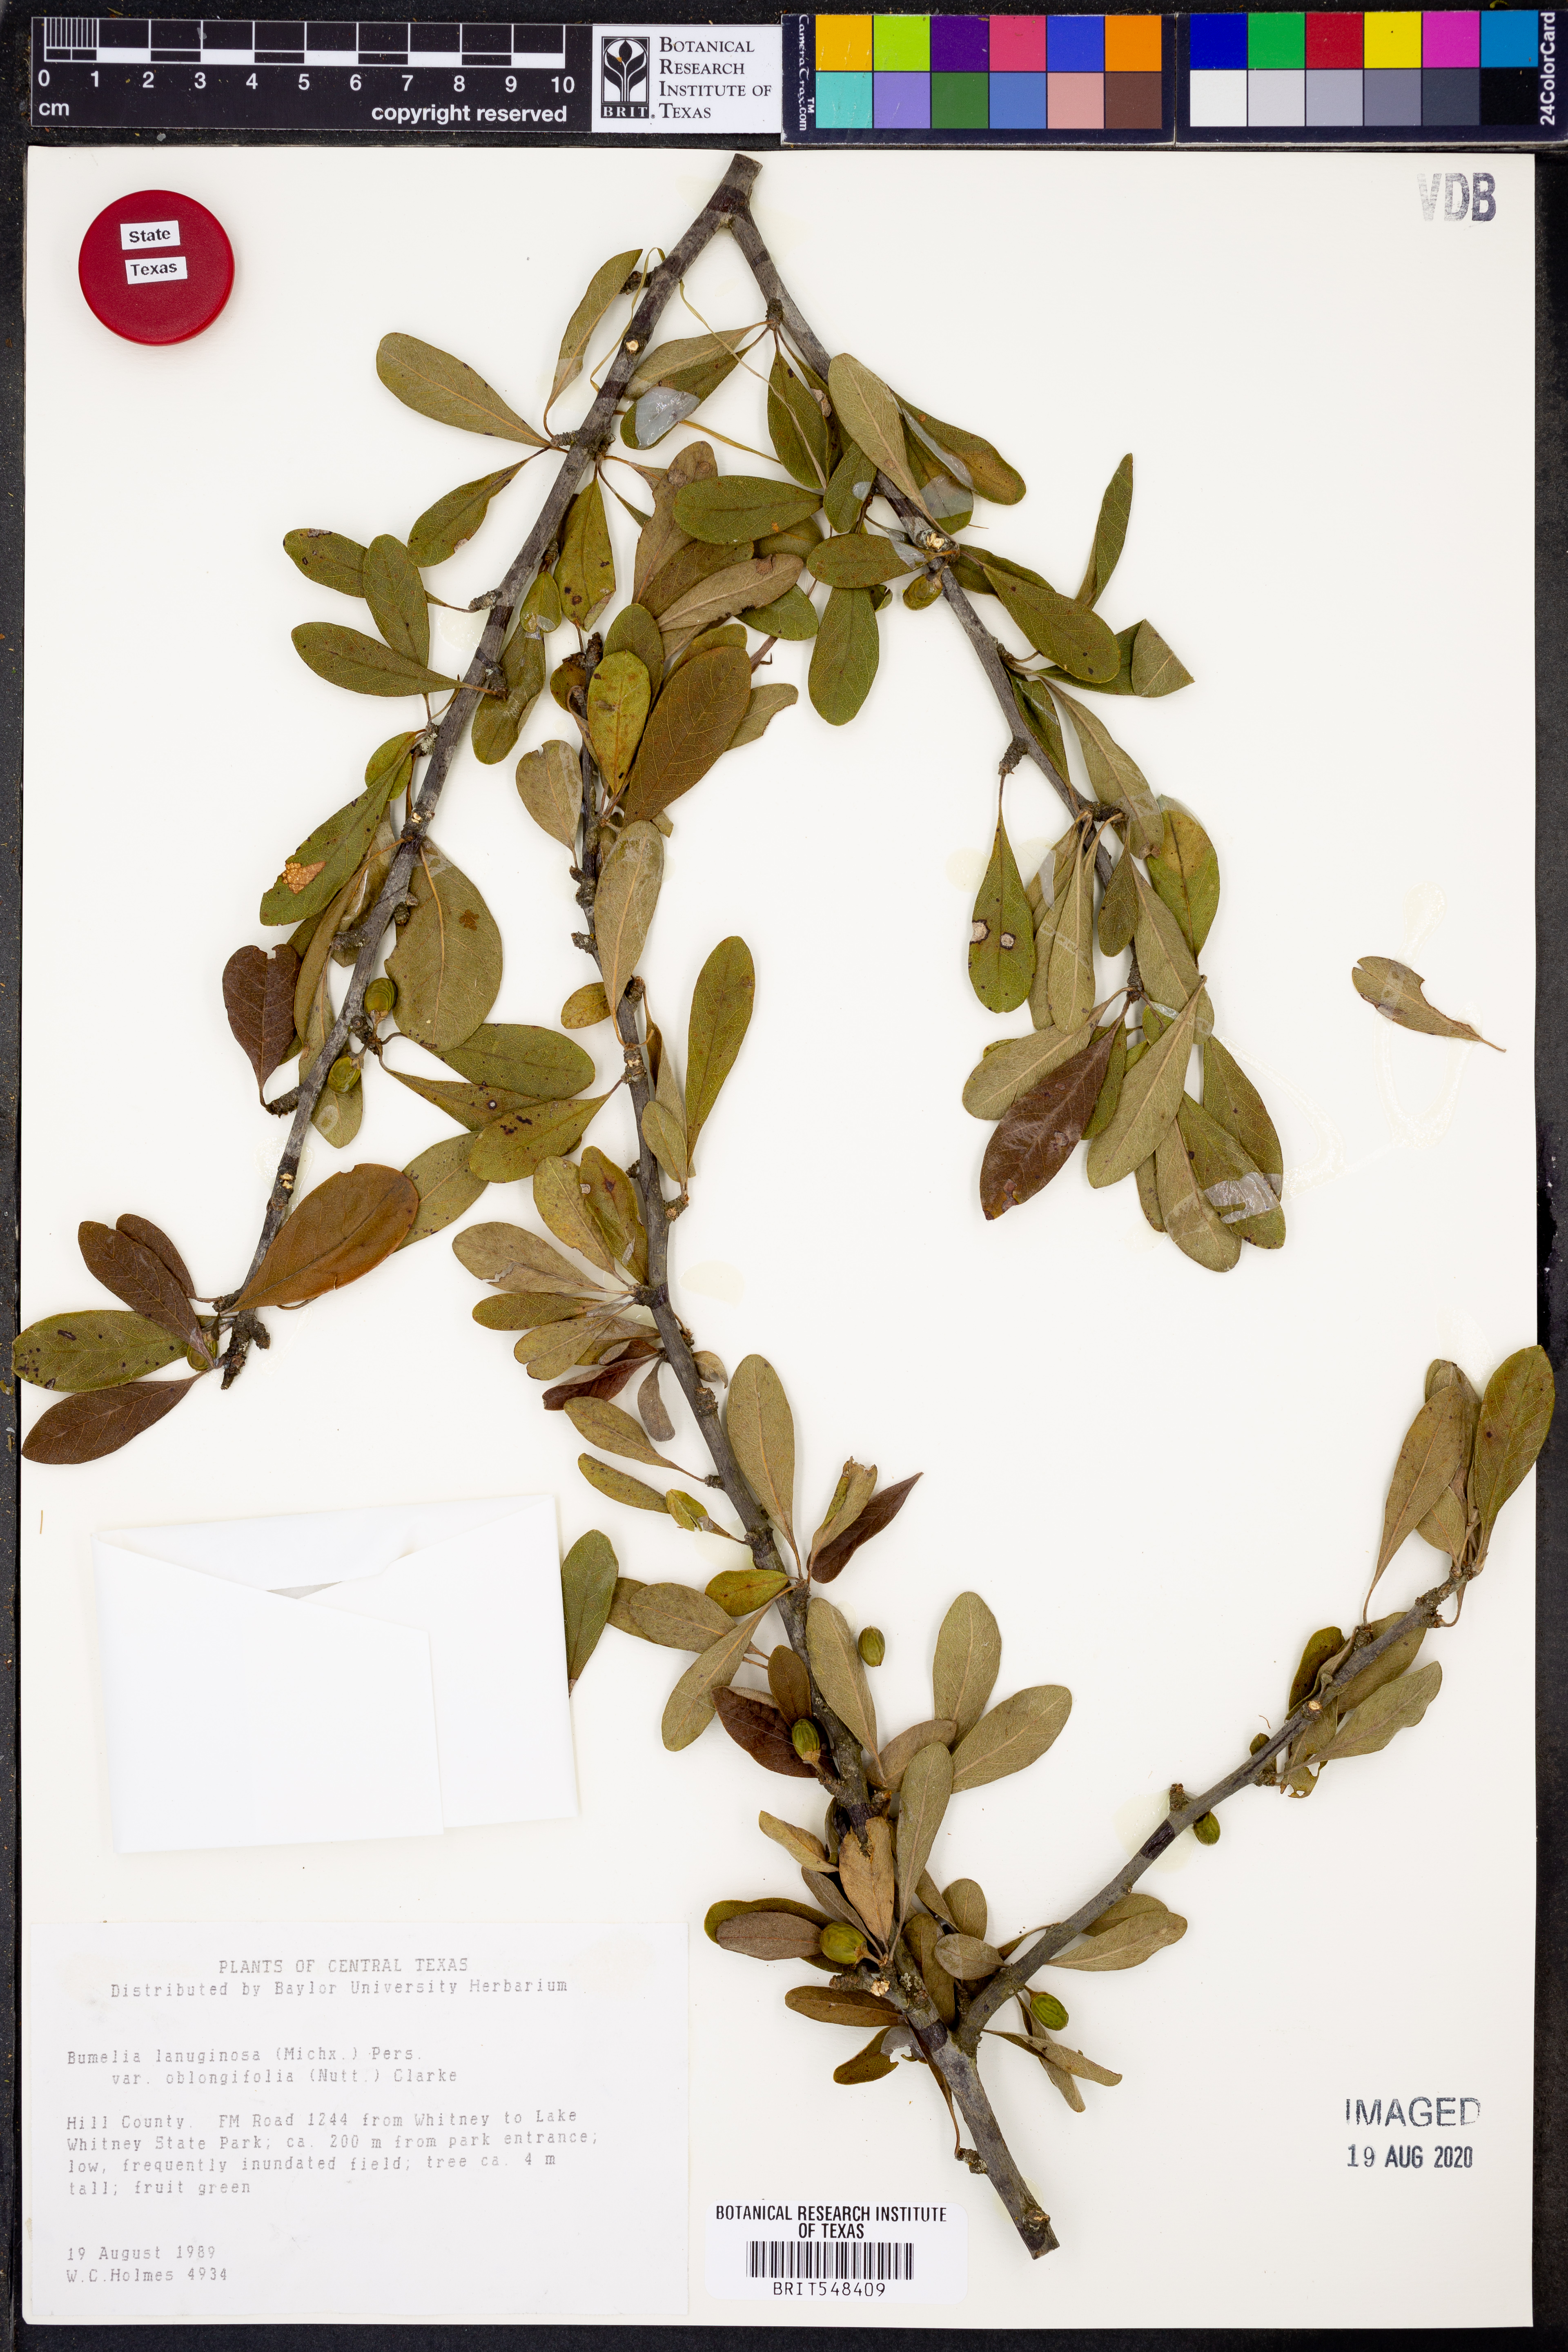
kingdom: Plantae
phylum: Tracheophyta
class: Magnoliopsida
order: Ericales
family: Sapotaceae
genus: Sideroxylon
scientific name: Sideroxylon lanuginosum
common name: Chittamwood
